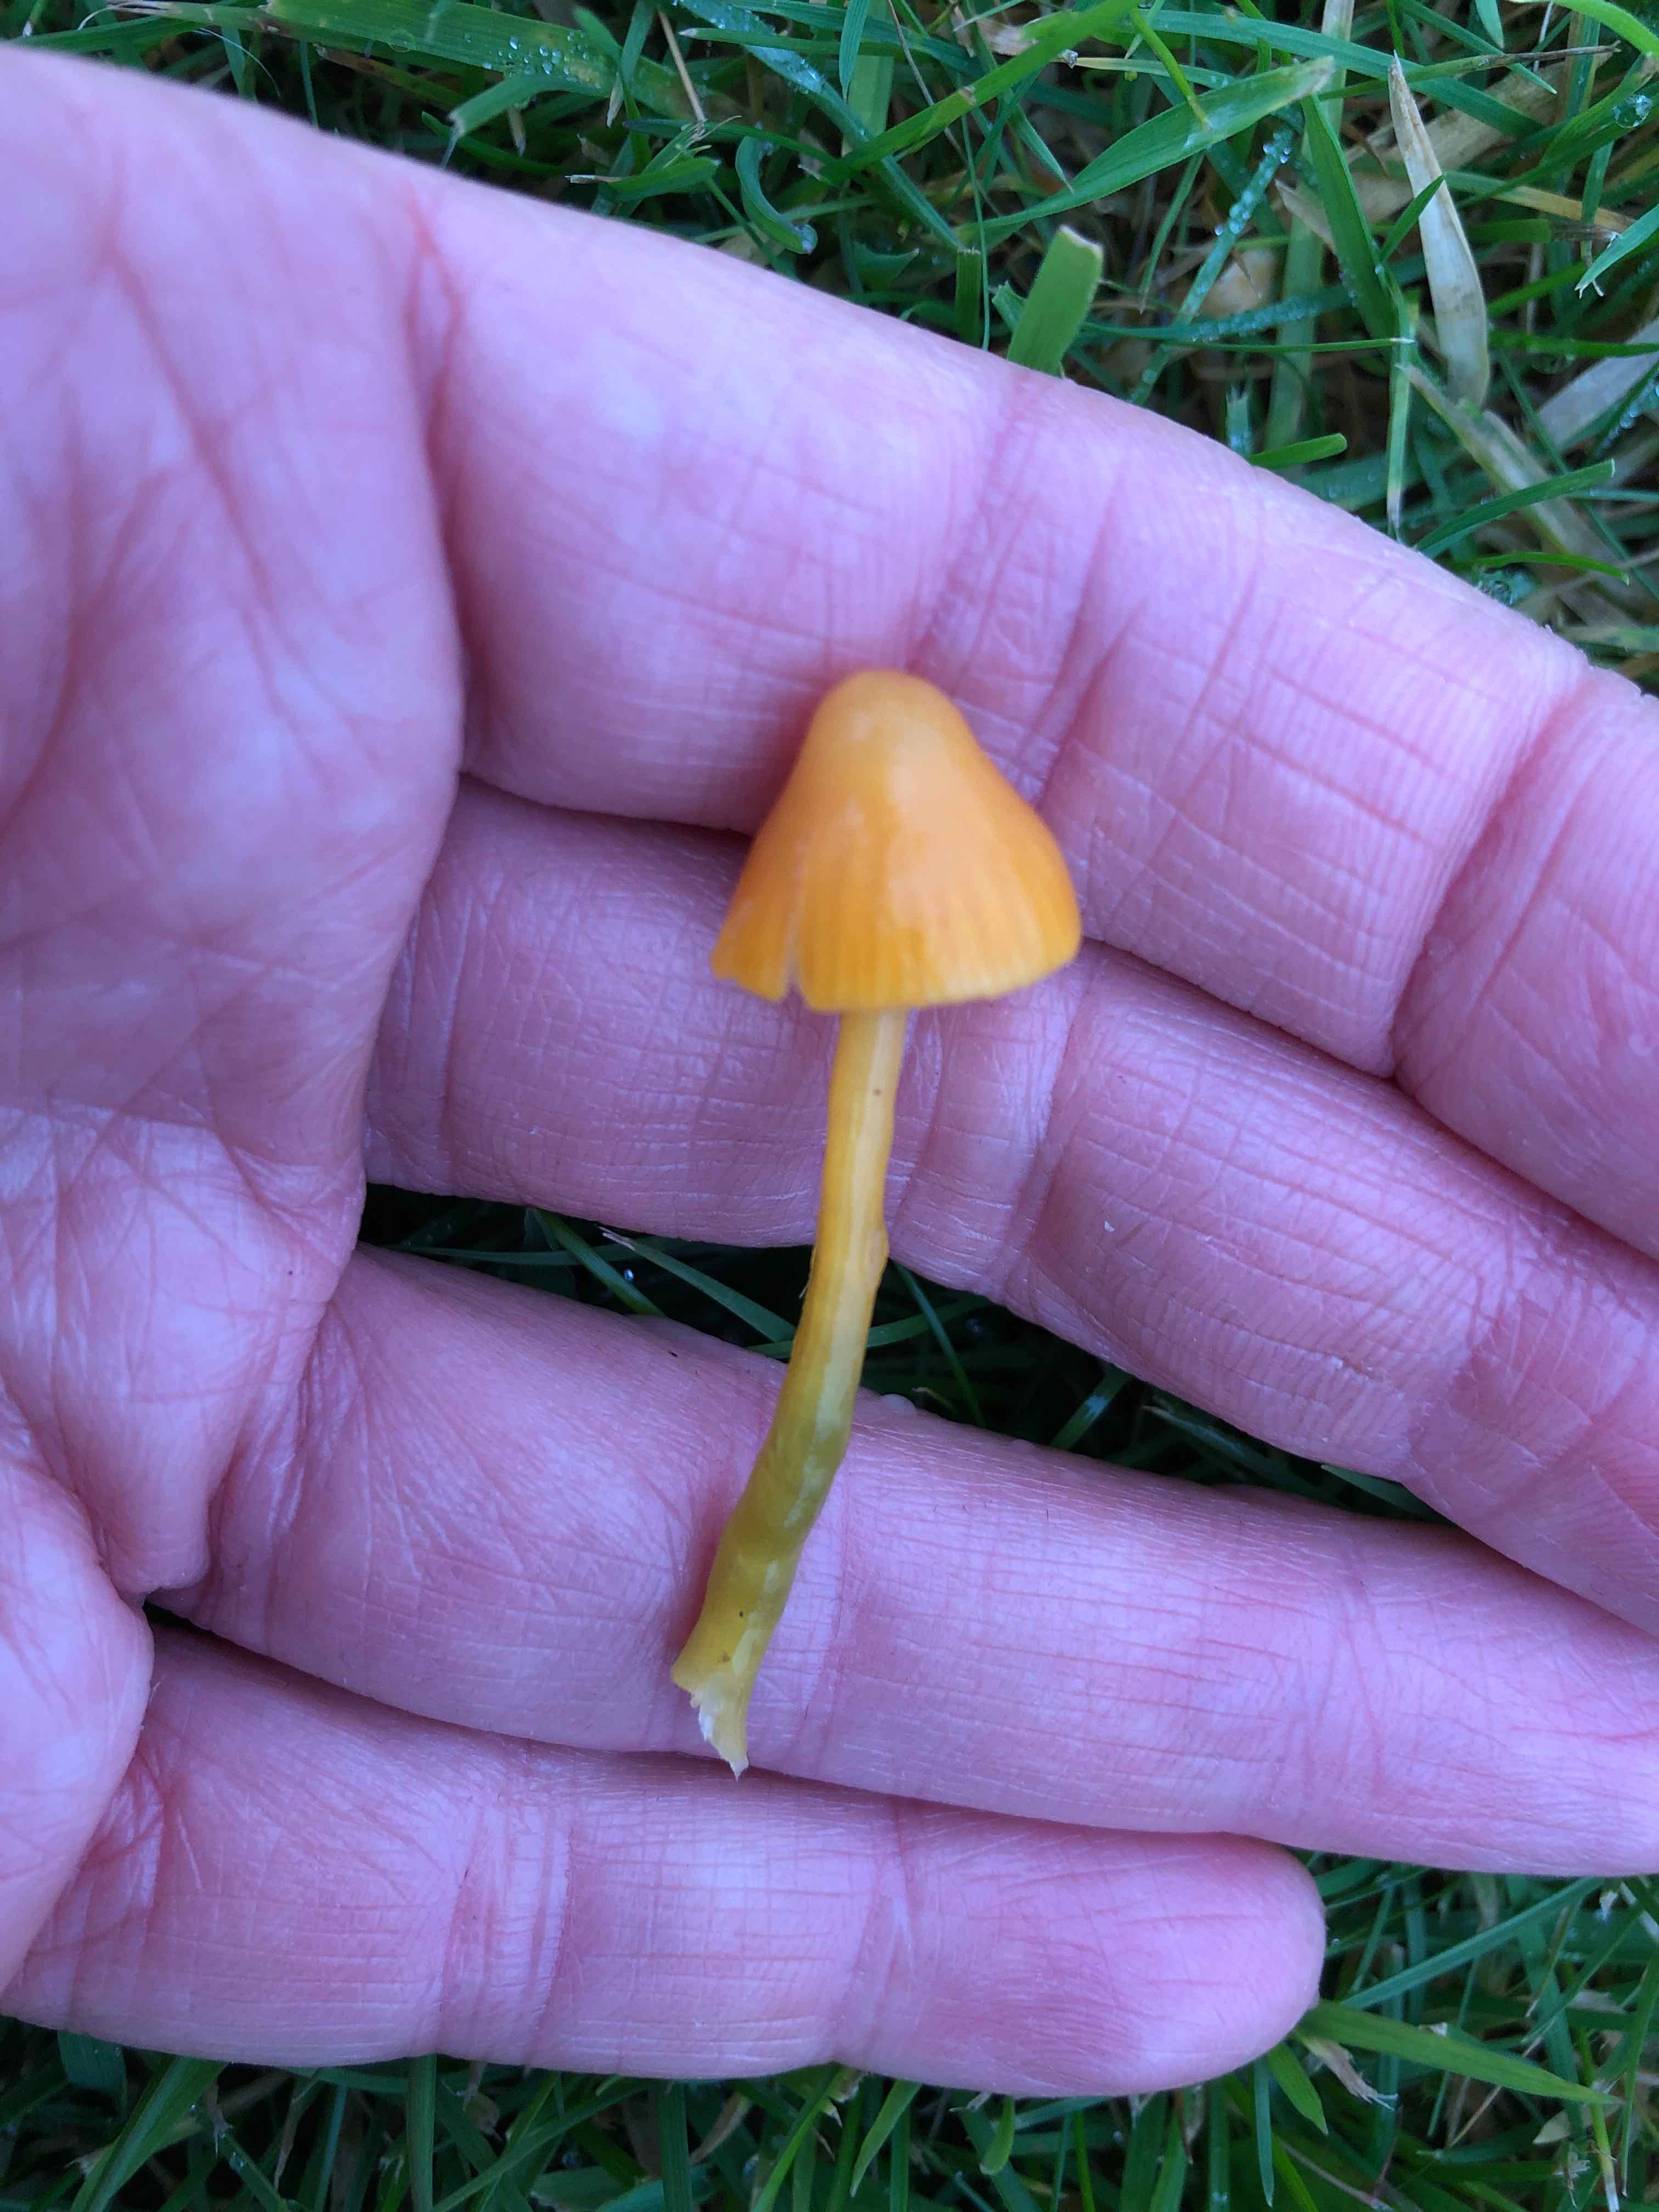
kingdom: Fungi
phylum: Basidiomycota
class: Agaricomycetes
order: Agaricales
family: Hygrophoraceae
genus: Gliophorus
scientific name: Gliophorus psittacinus
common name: papegøje-vokshat
